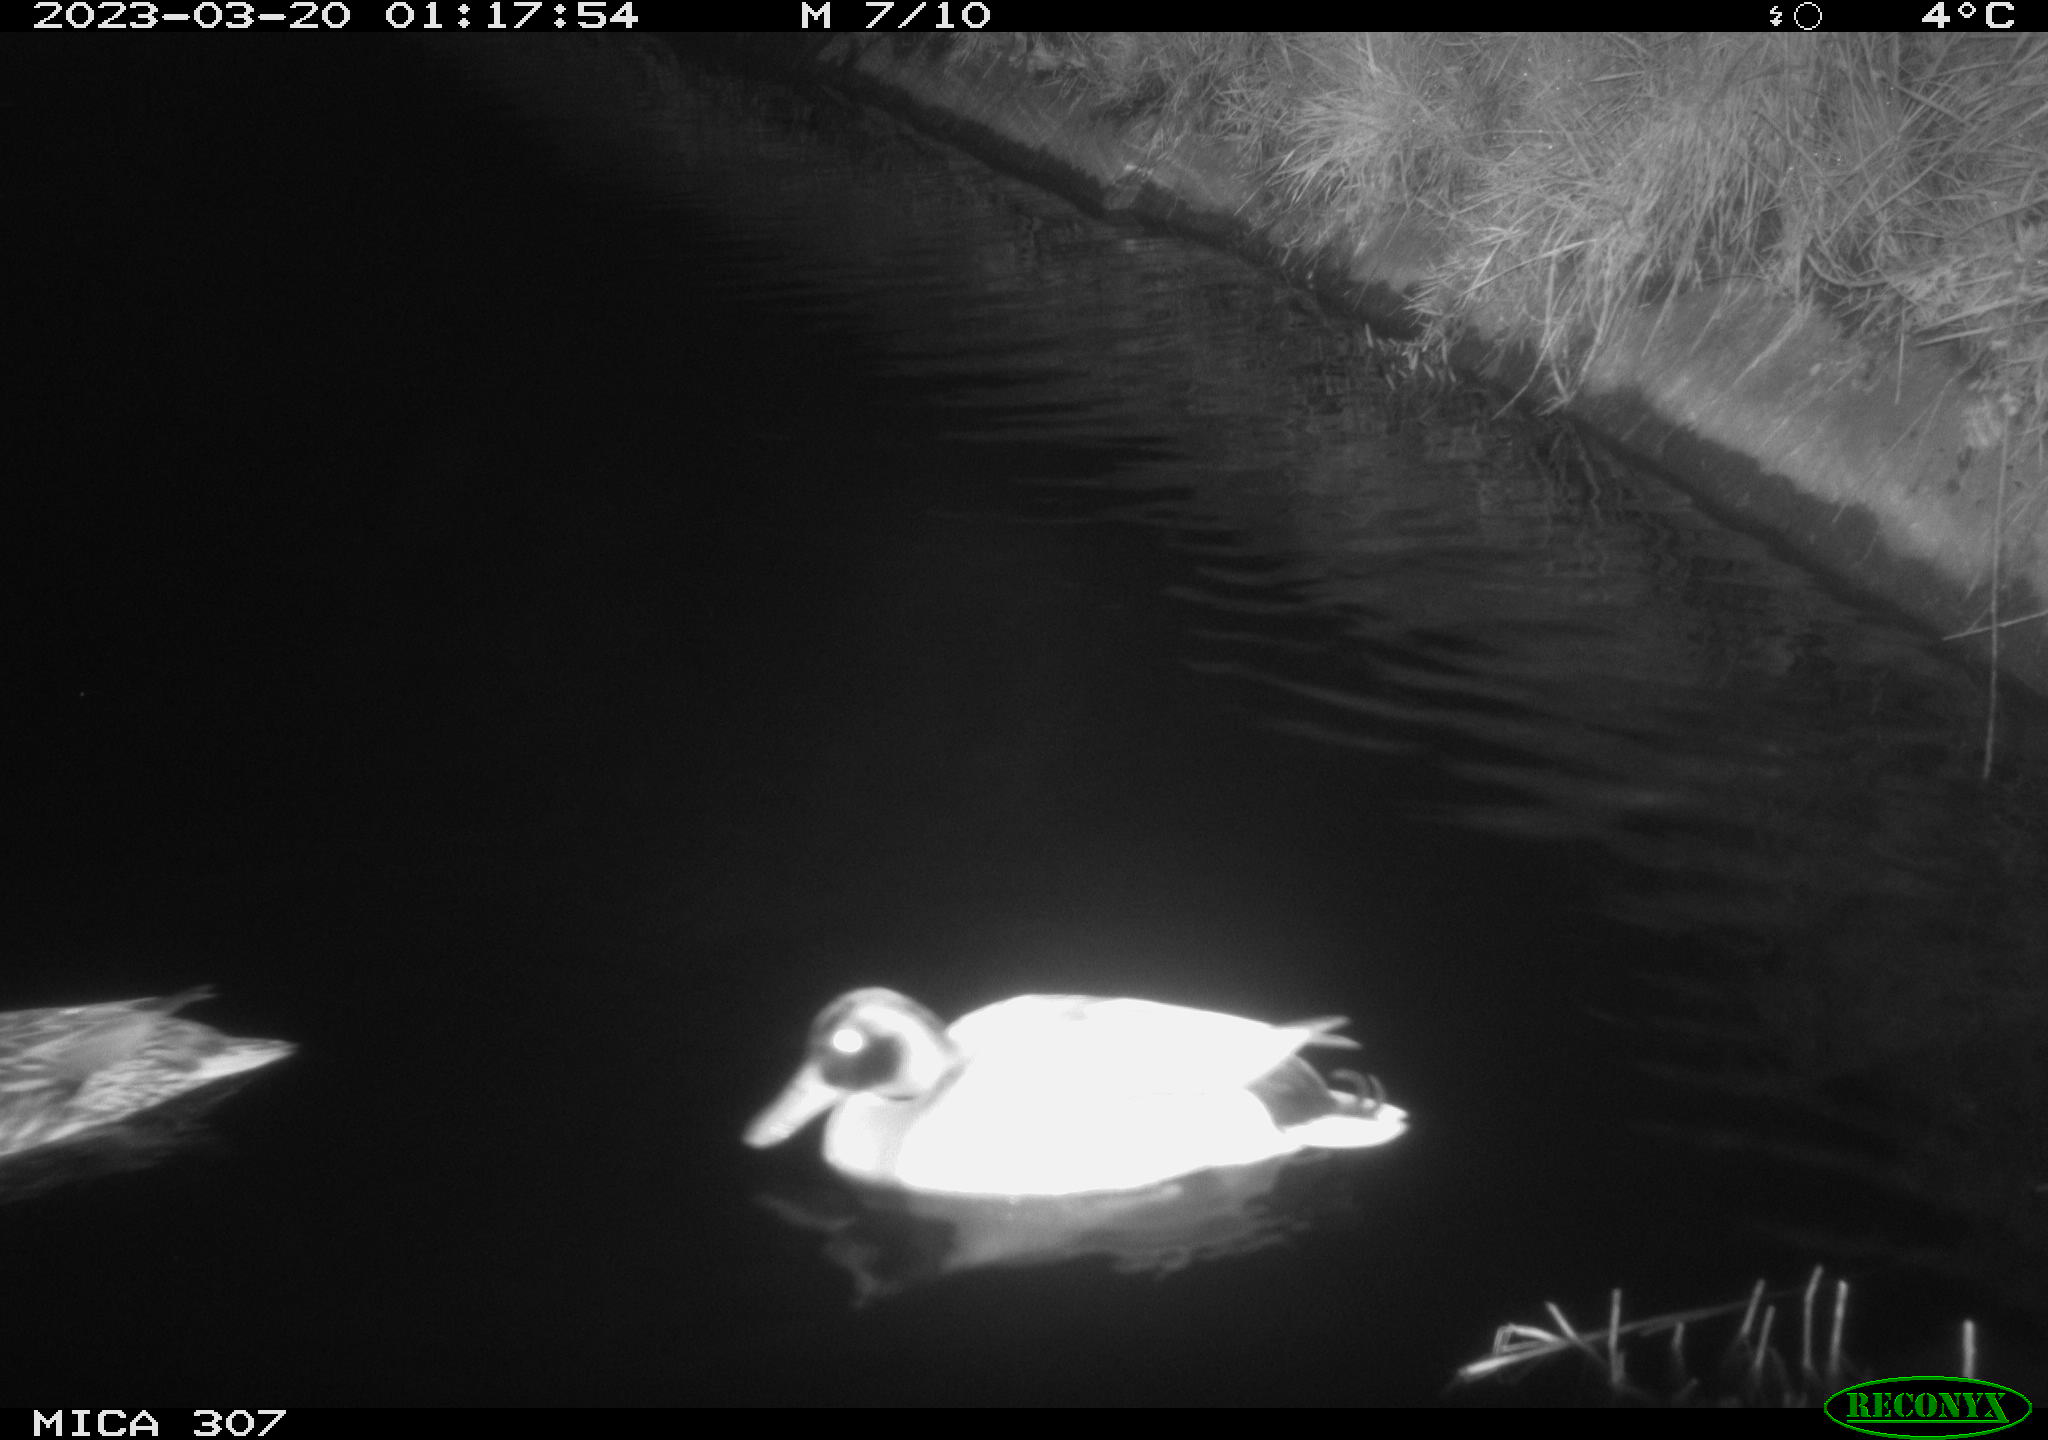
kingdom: Animalia
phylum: Chordata
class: Aves
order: Anseriformes
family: Anatidae
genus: Anas
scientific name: Anas
